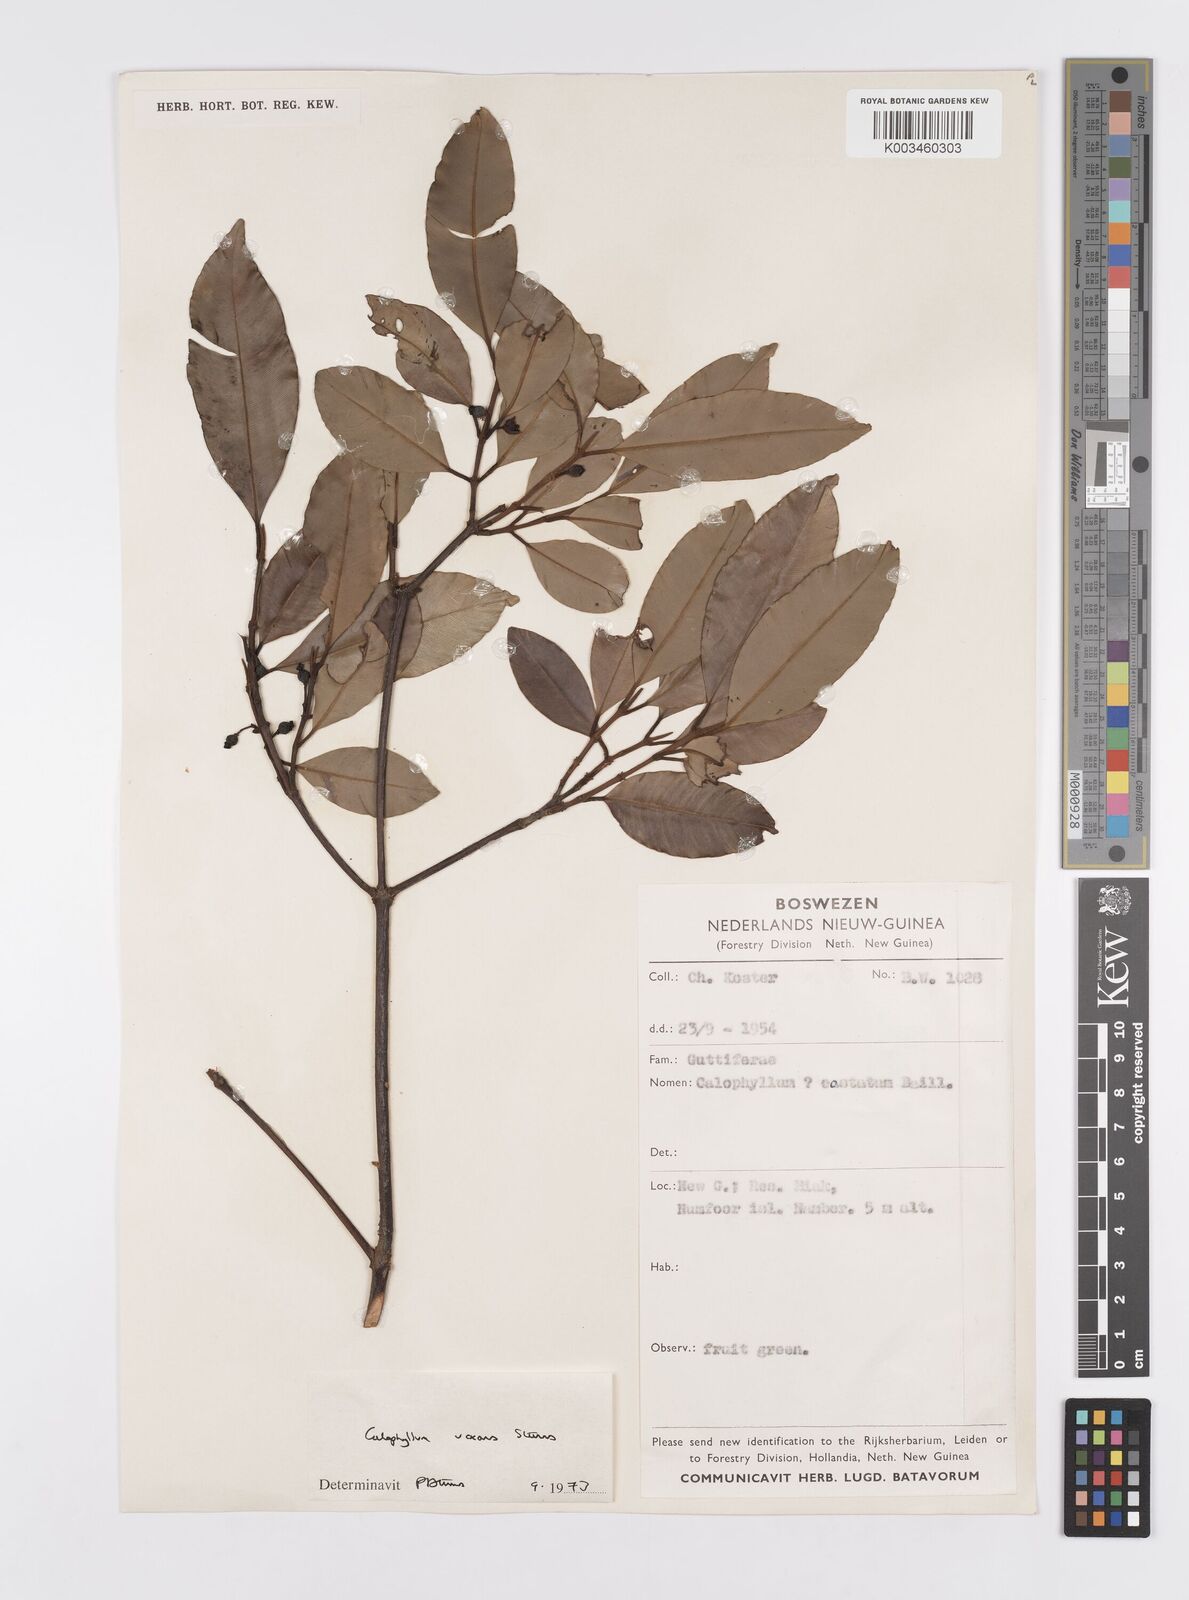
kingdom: Plantae
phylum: Tracheophyta
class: Magnoliopsida
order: Malpighiales
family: Calophyllaceae
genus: Calophyllum
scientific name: Calophyllum vexans
